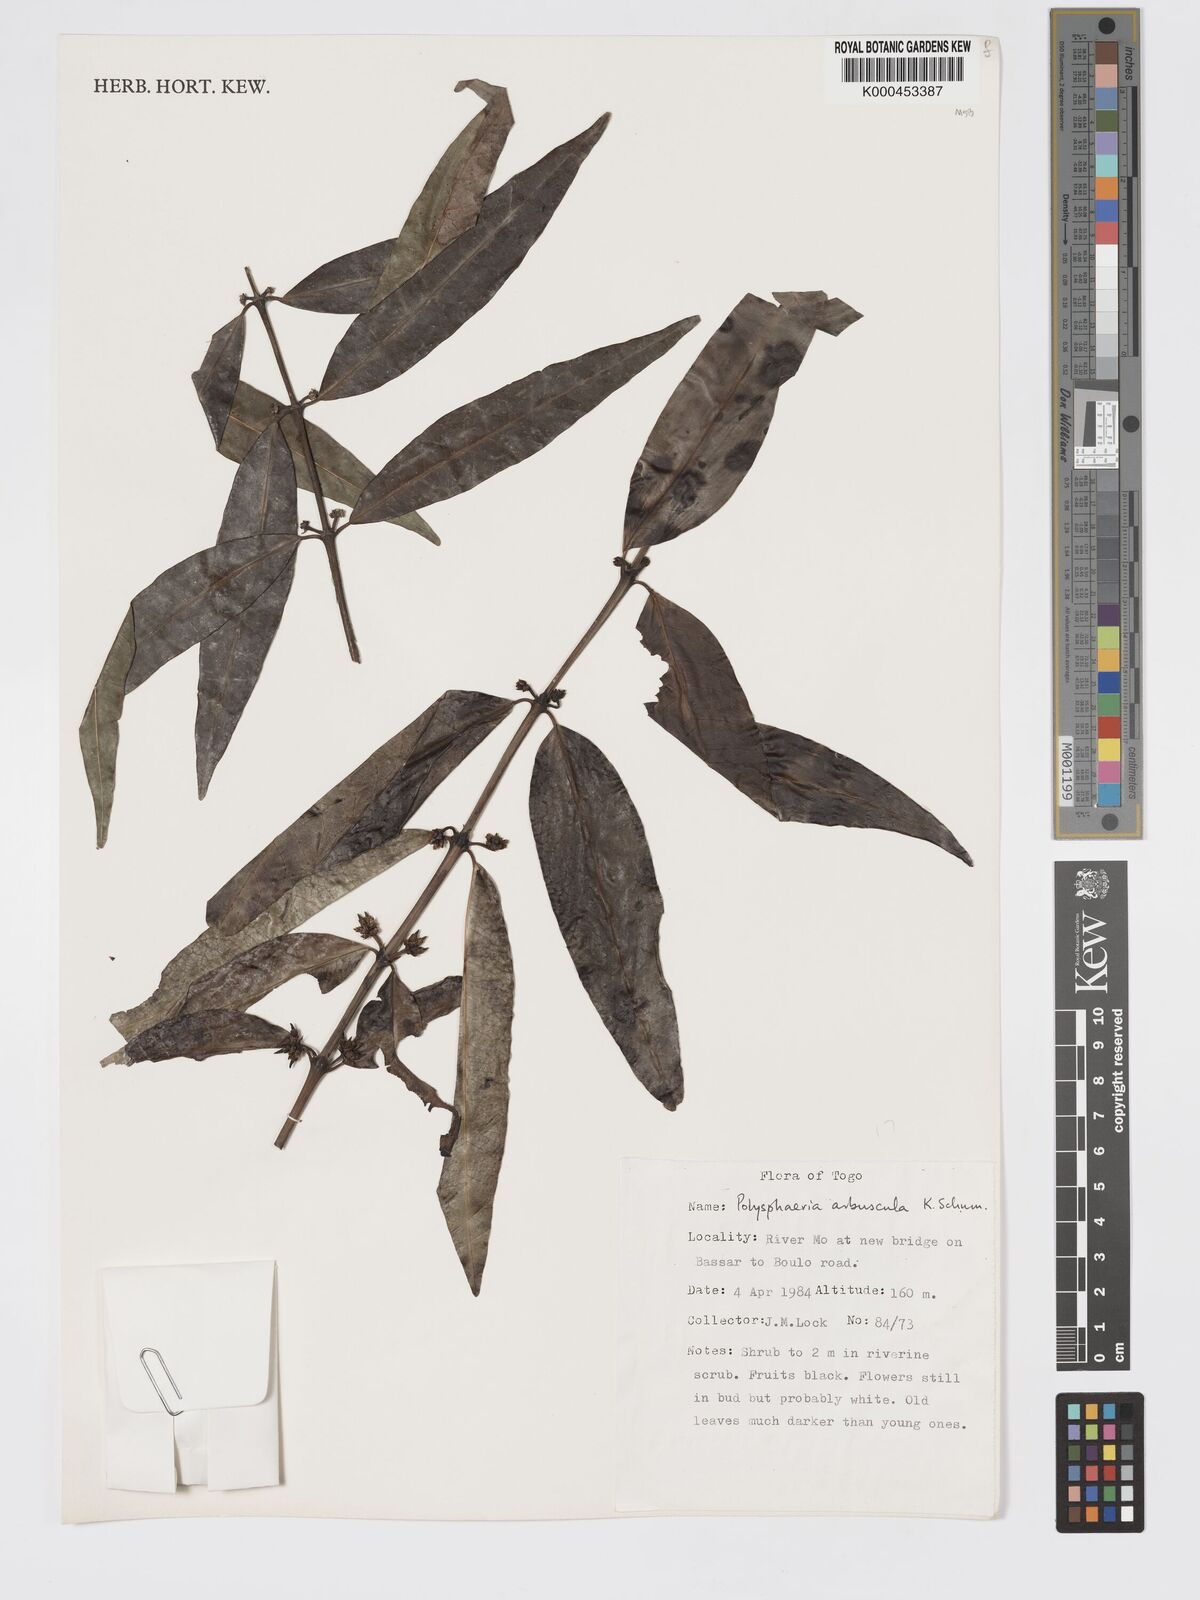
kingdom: Plantae
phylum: Tracheophyta
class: Magnoliopsida
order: Gentianales
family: Rubiaceae
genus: Polysphaeria
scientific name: Polysphaeria arbuscula
